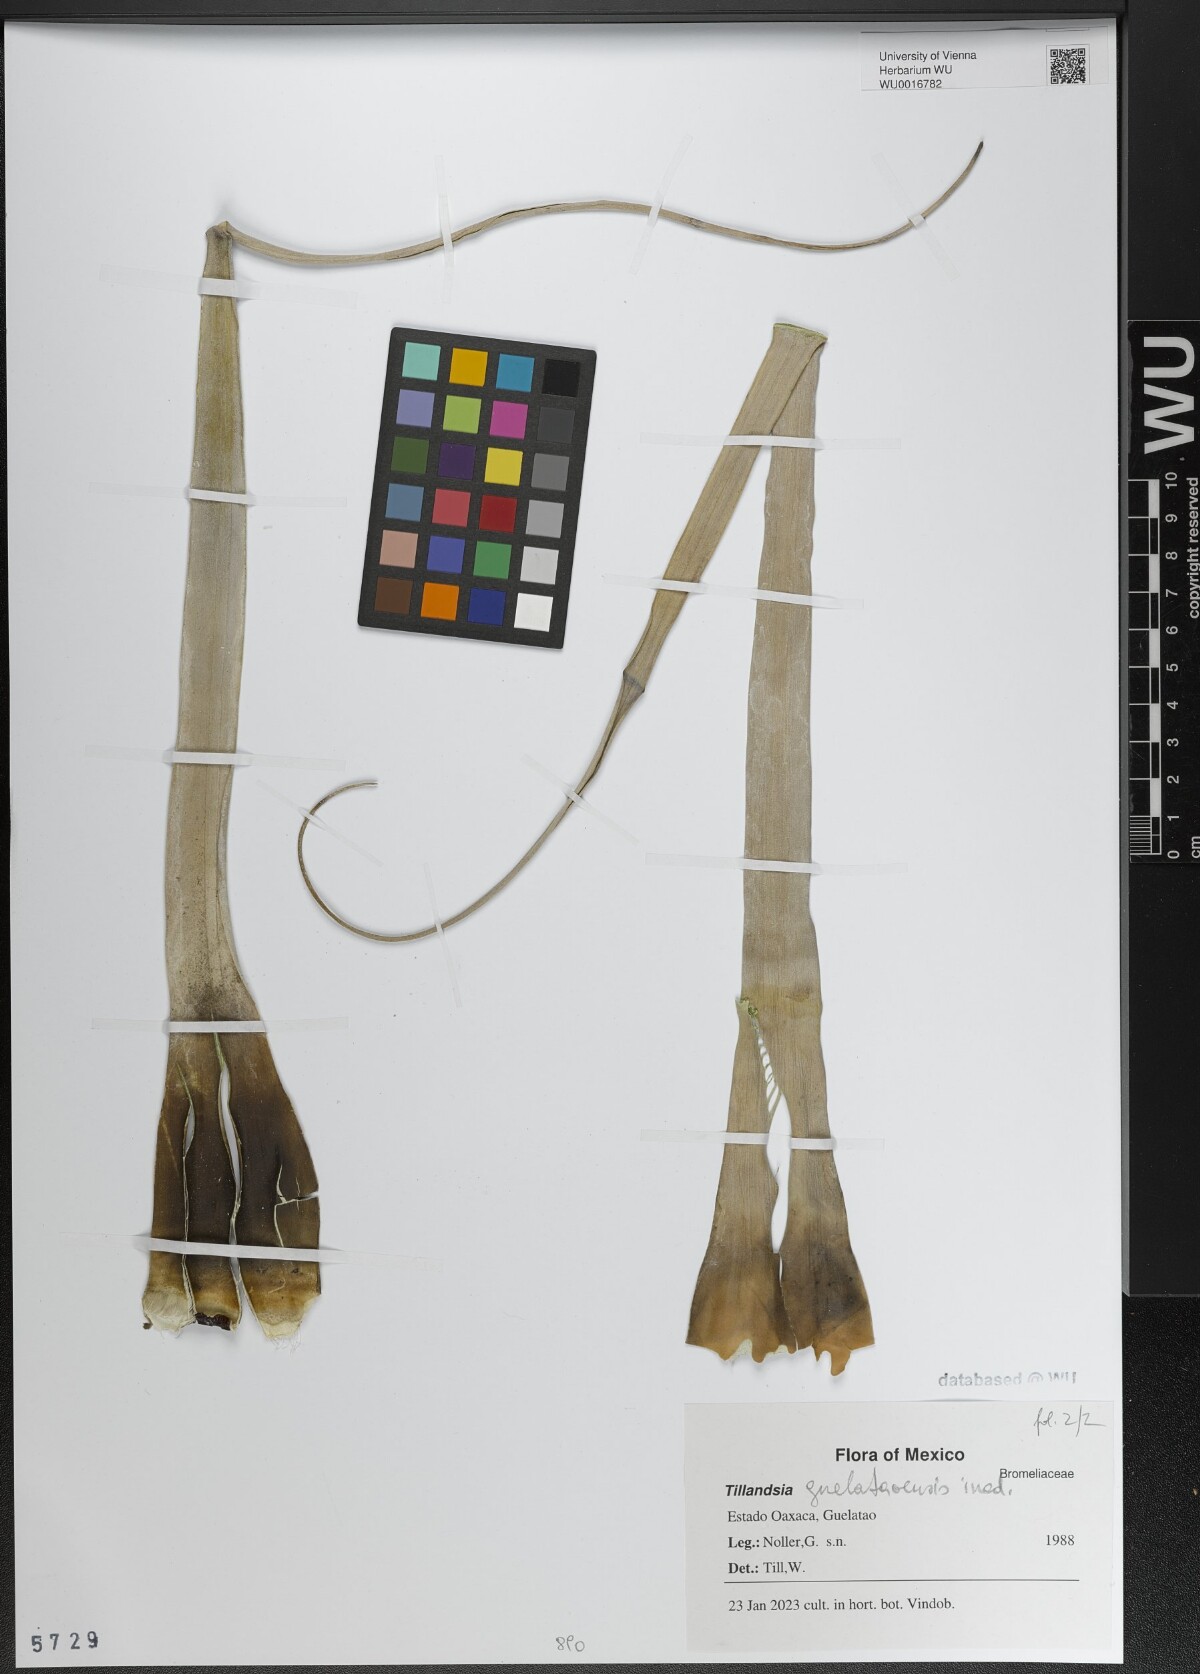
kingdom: Plantae
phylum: Tracheophyta
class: Liliopsida
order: Poales
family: Bromeliaceae
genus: Tillandsia
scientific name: Tillandsia
